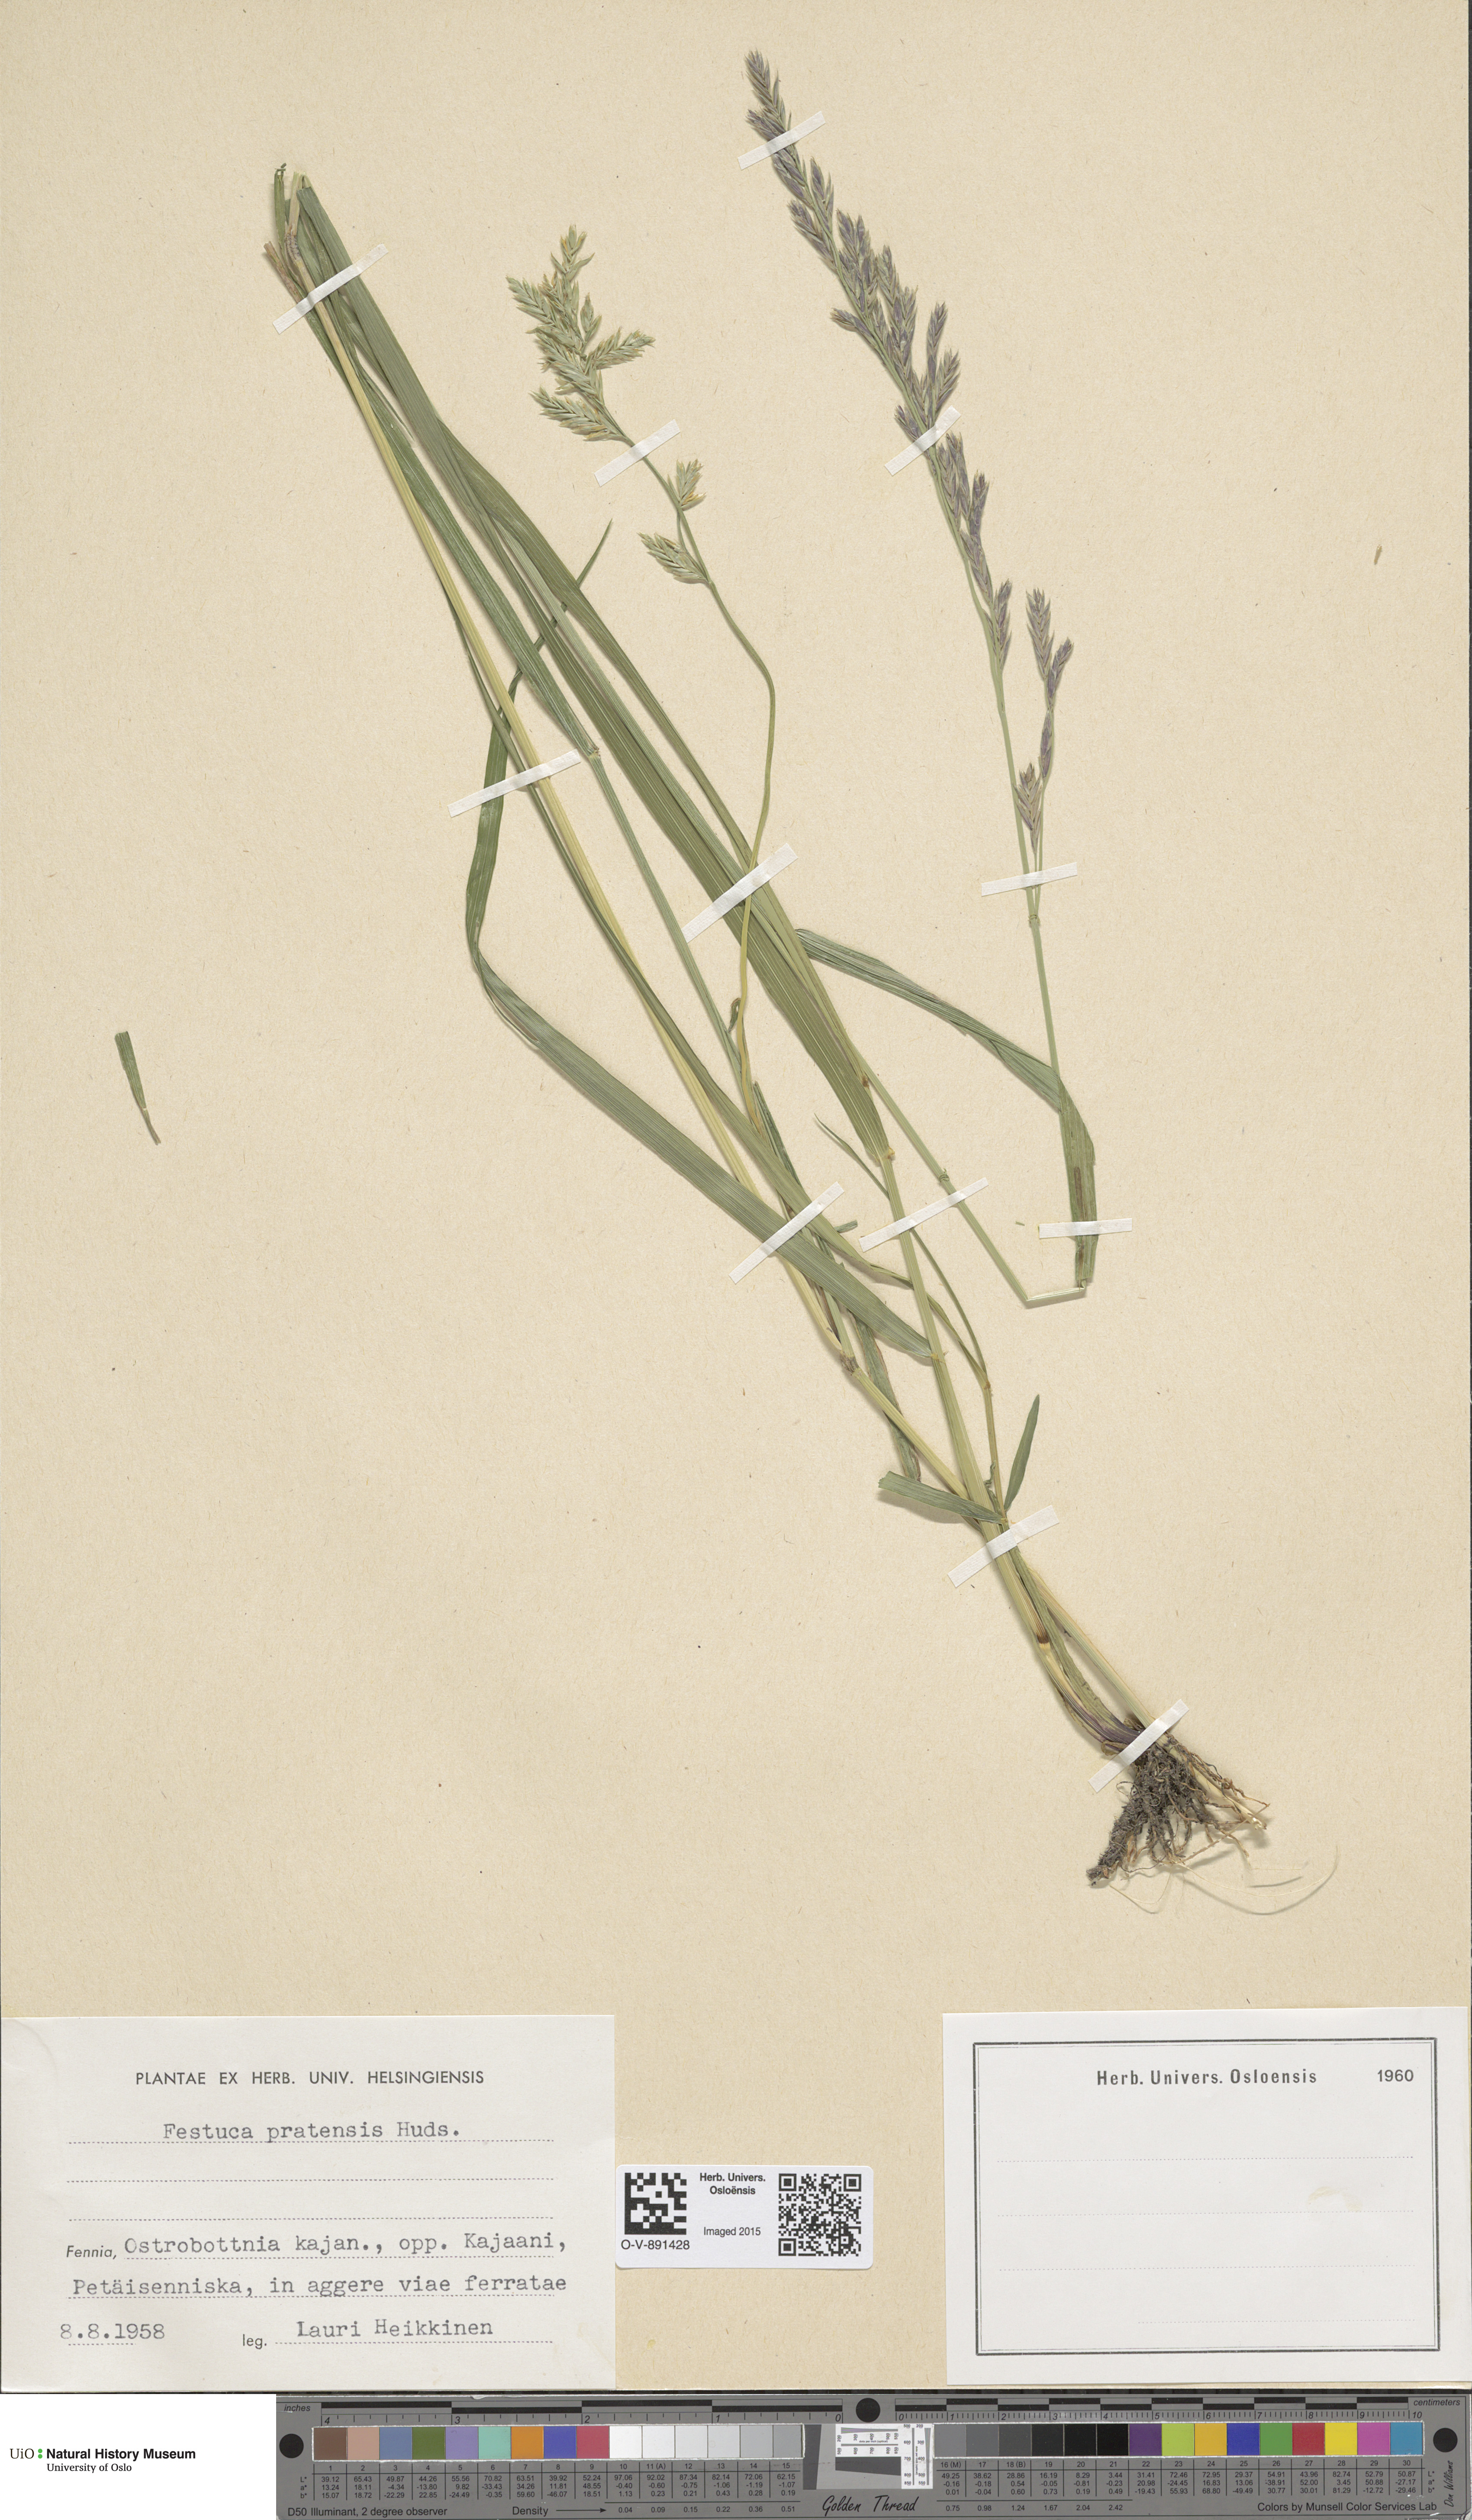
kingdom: Plantae
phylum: Tracheophyta
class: Liliopsida
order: Poales
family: Poaceae
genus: Lolium
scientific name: Lolium pratense
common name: Dover grass
